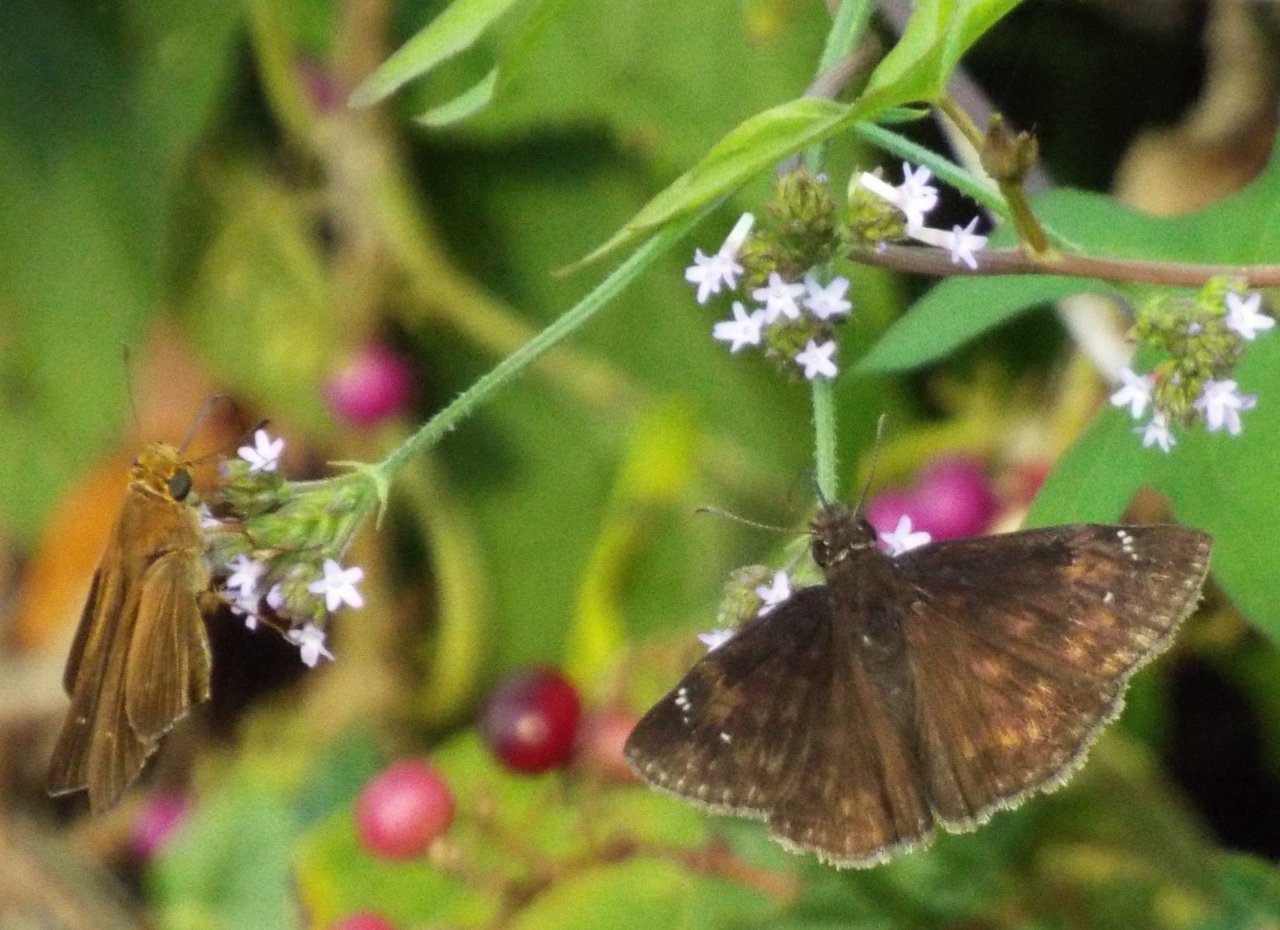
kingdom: Animalia
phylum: Arthropoda
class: Insecta
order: Lepidoptera
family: Hesperiidae
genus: Erynnis
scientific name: Erynnis zarucco
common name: Zarucco Duskywing
